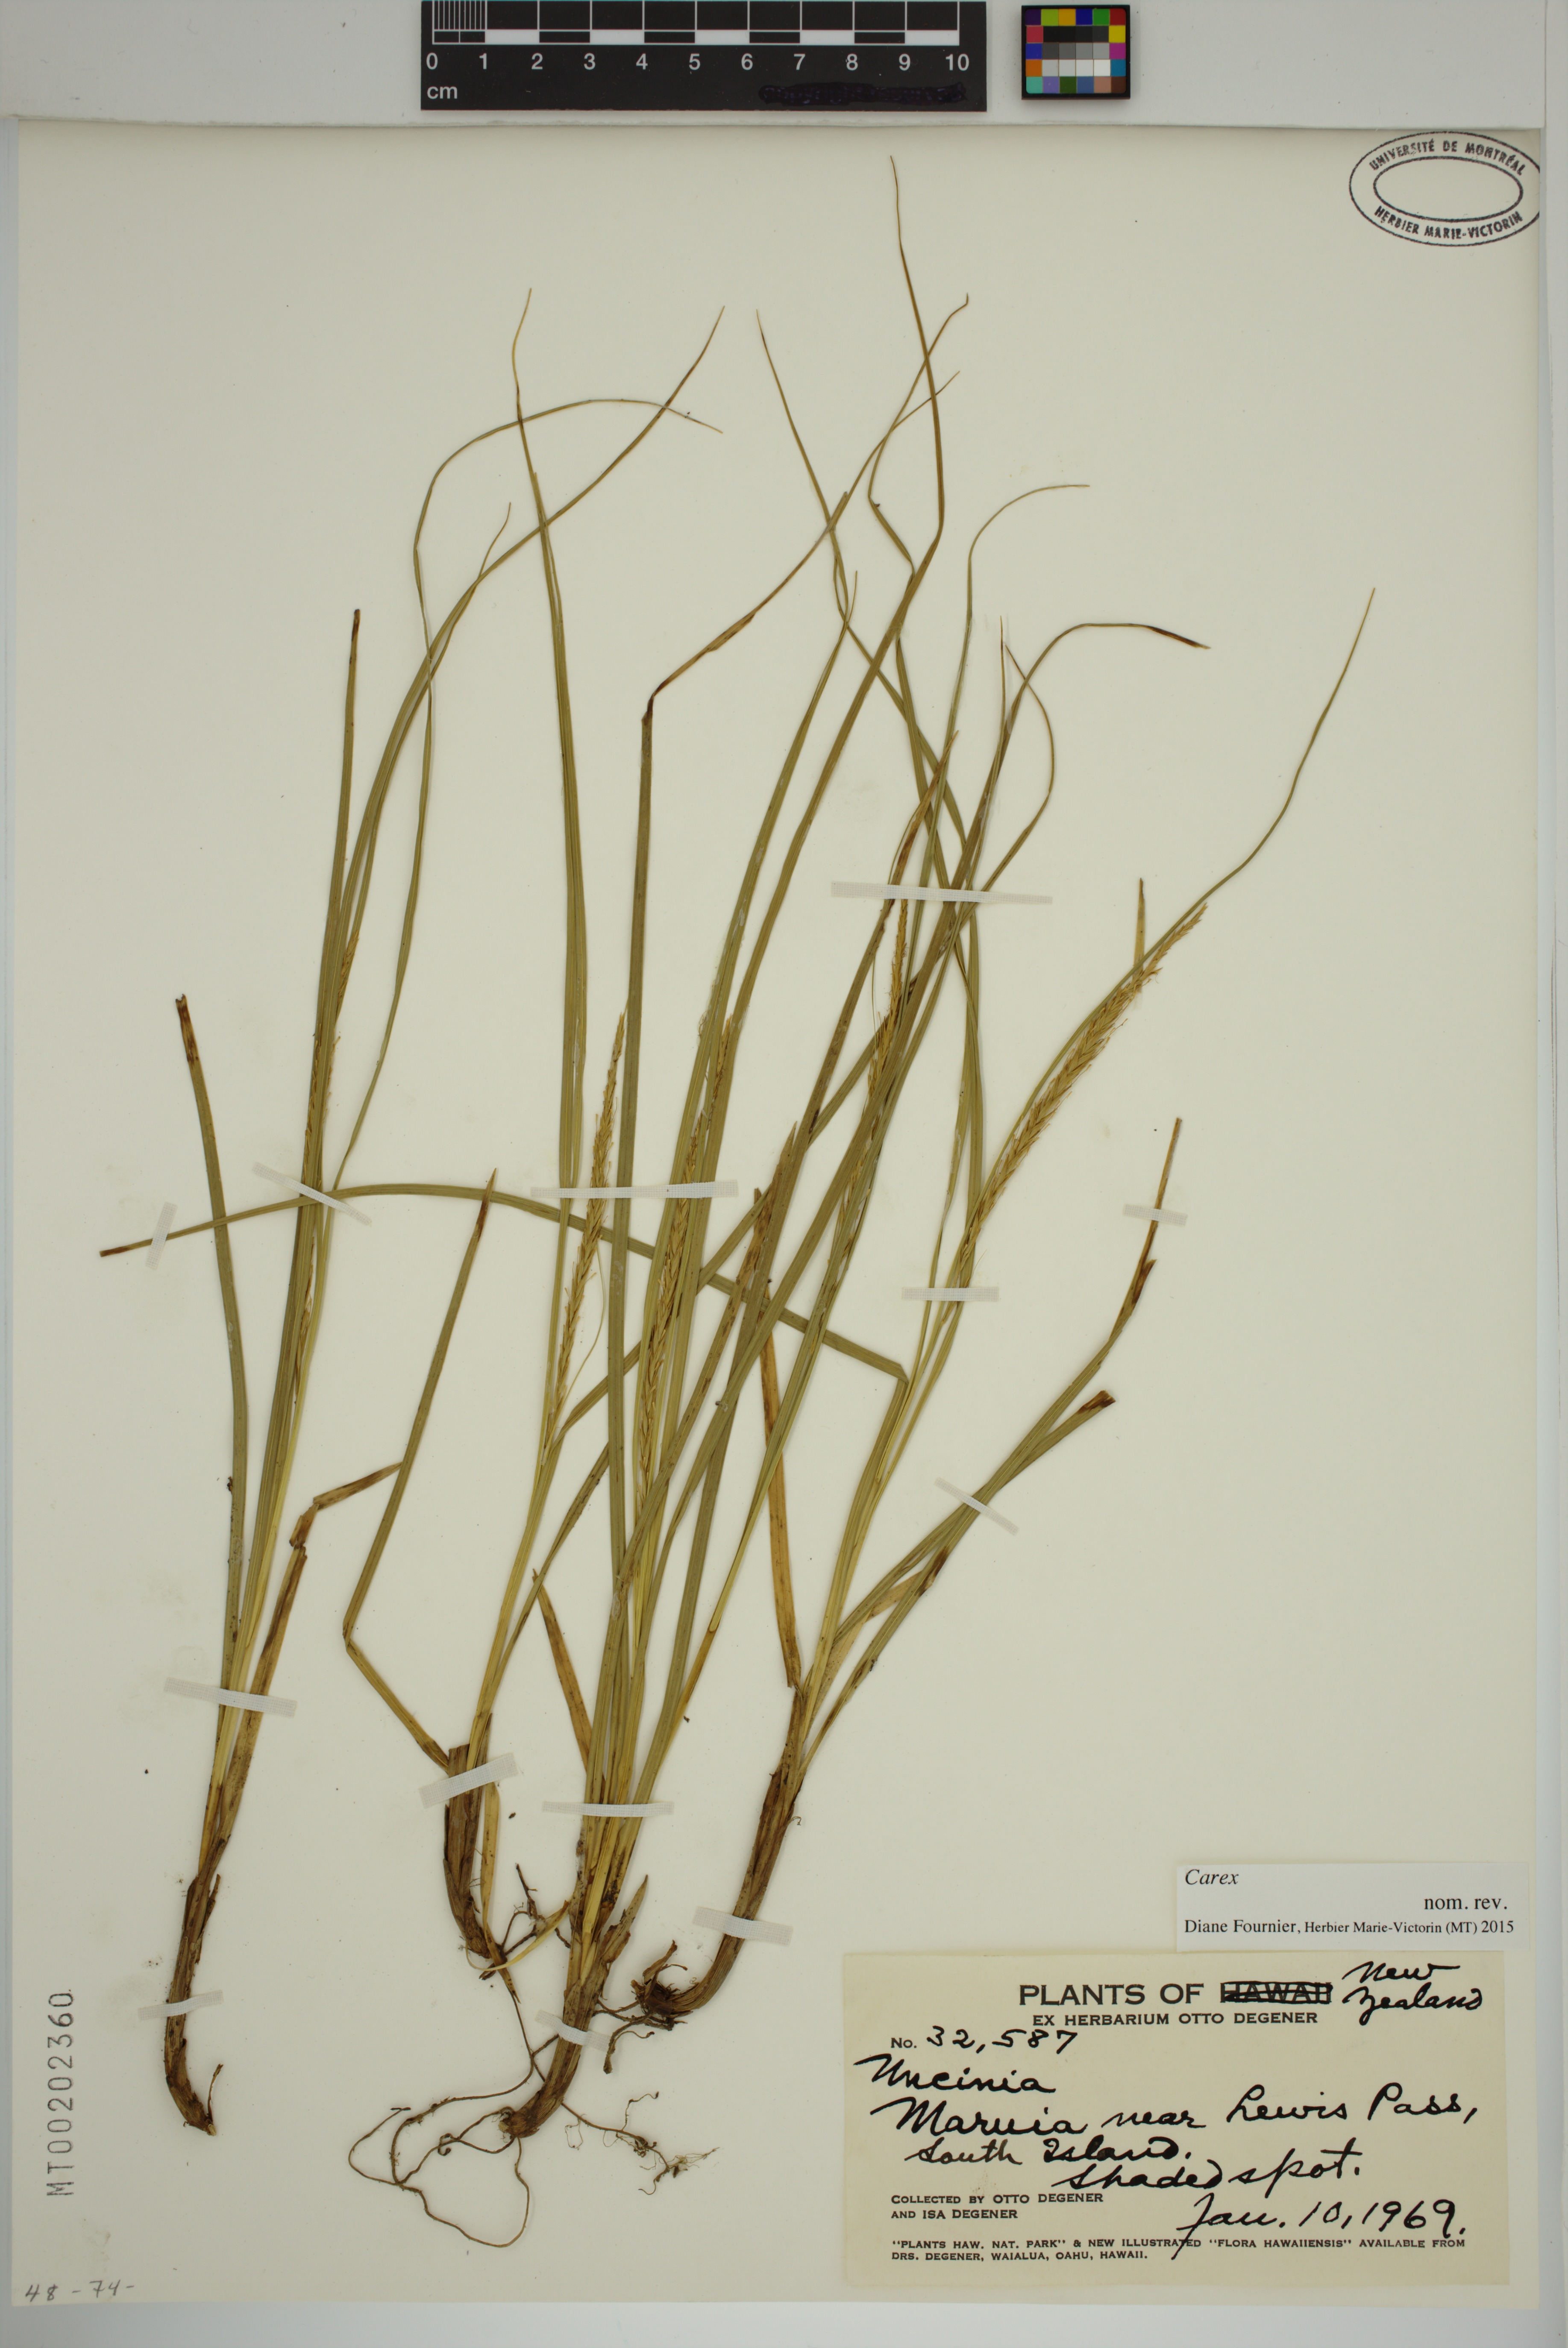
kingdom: Plantae
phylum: Tracheophyta
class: Liliopsida
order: Poales
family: Cyperaceae
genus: Carex
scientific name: Carex
